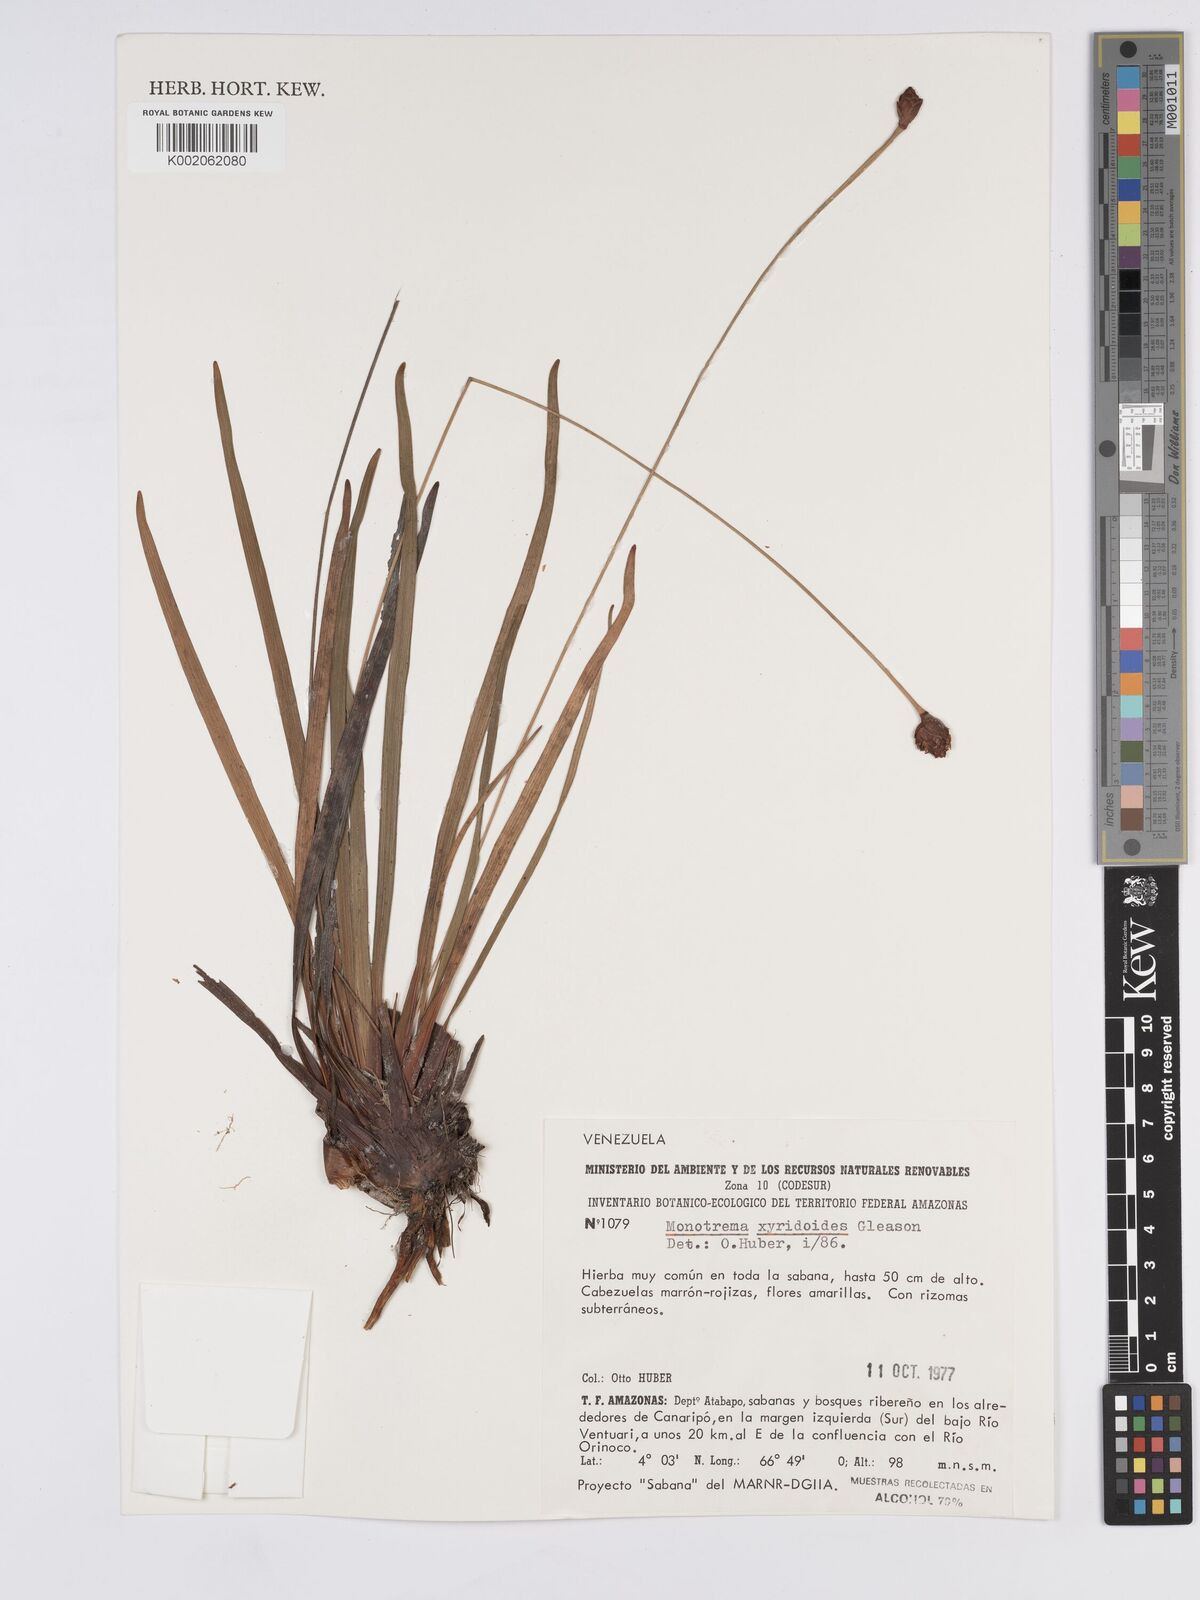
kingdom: Plantae
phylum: Tracheophyta
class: Liliopsida
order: Poales
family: Rapateaceae
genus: Monotrema
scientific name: Monotrema xyridoides
